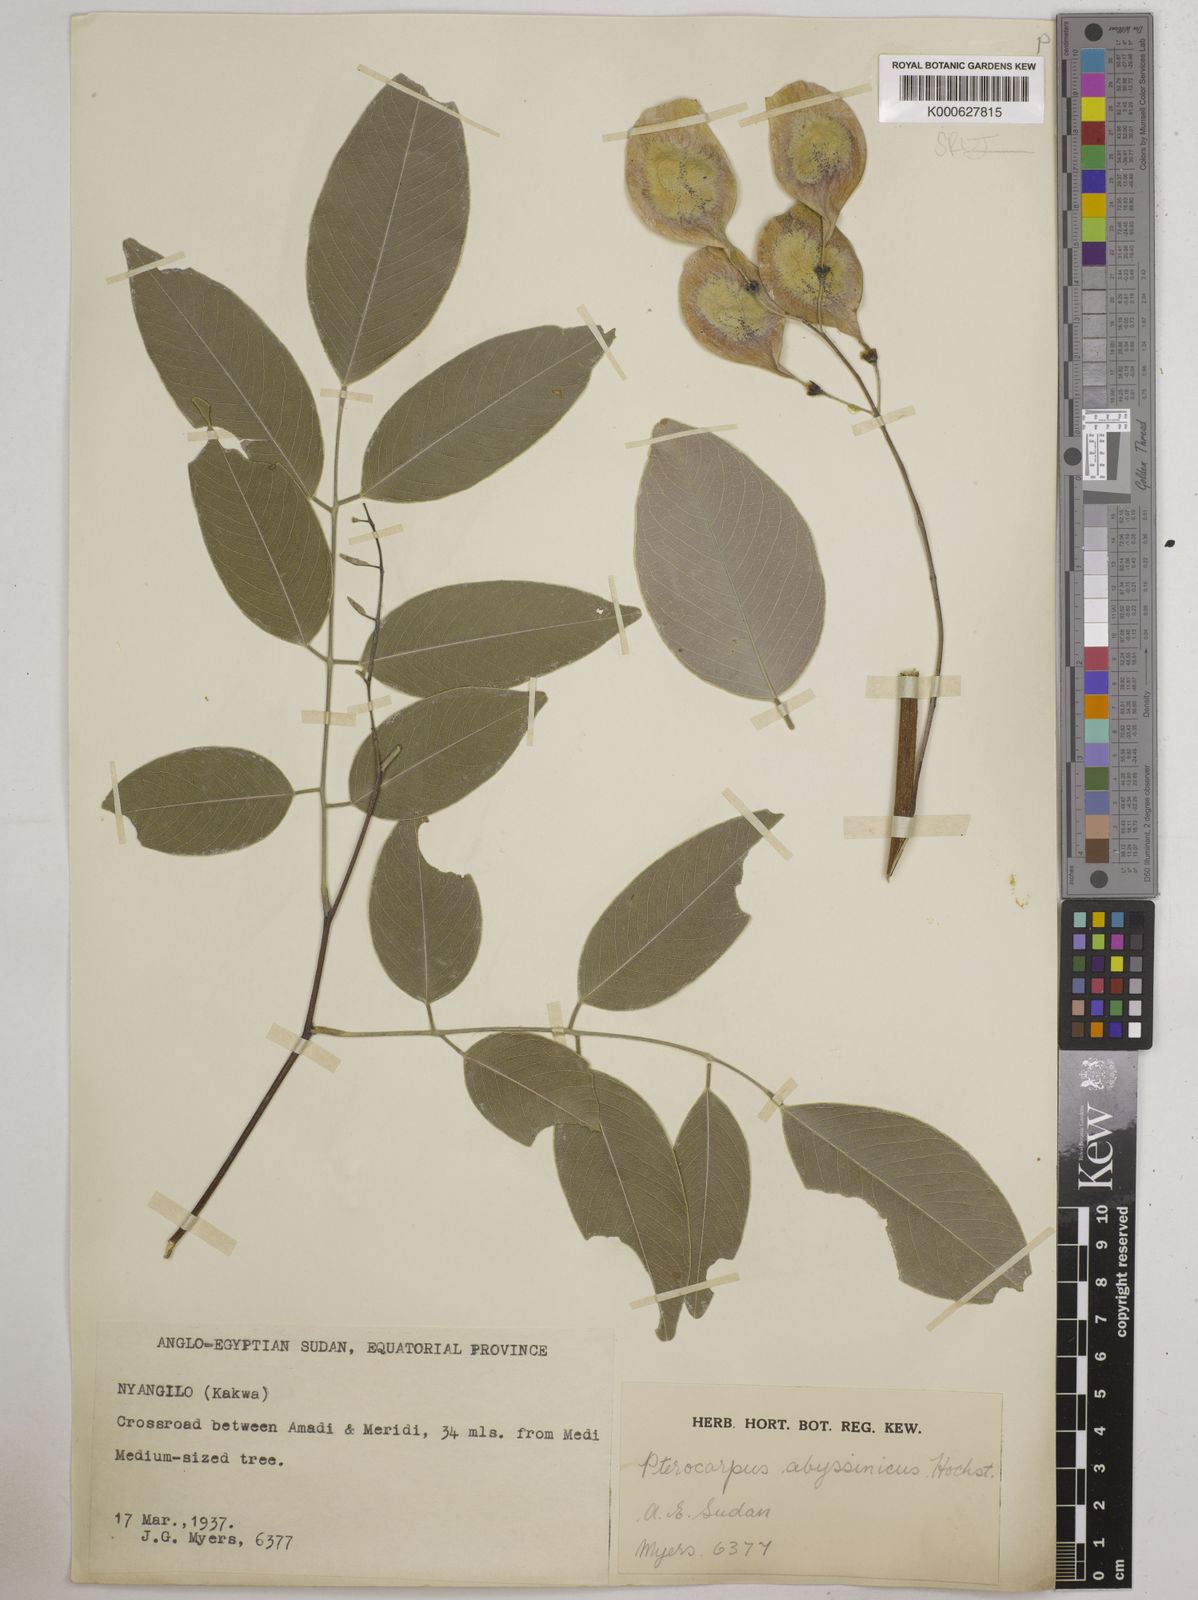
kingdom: Plantae
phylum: Tracheophyta
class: Magnoliopsida
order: Fabales
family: Fabaceae
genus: Pterocarpus
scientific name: Pterocarpus
